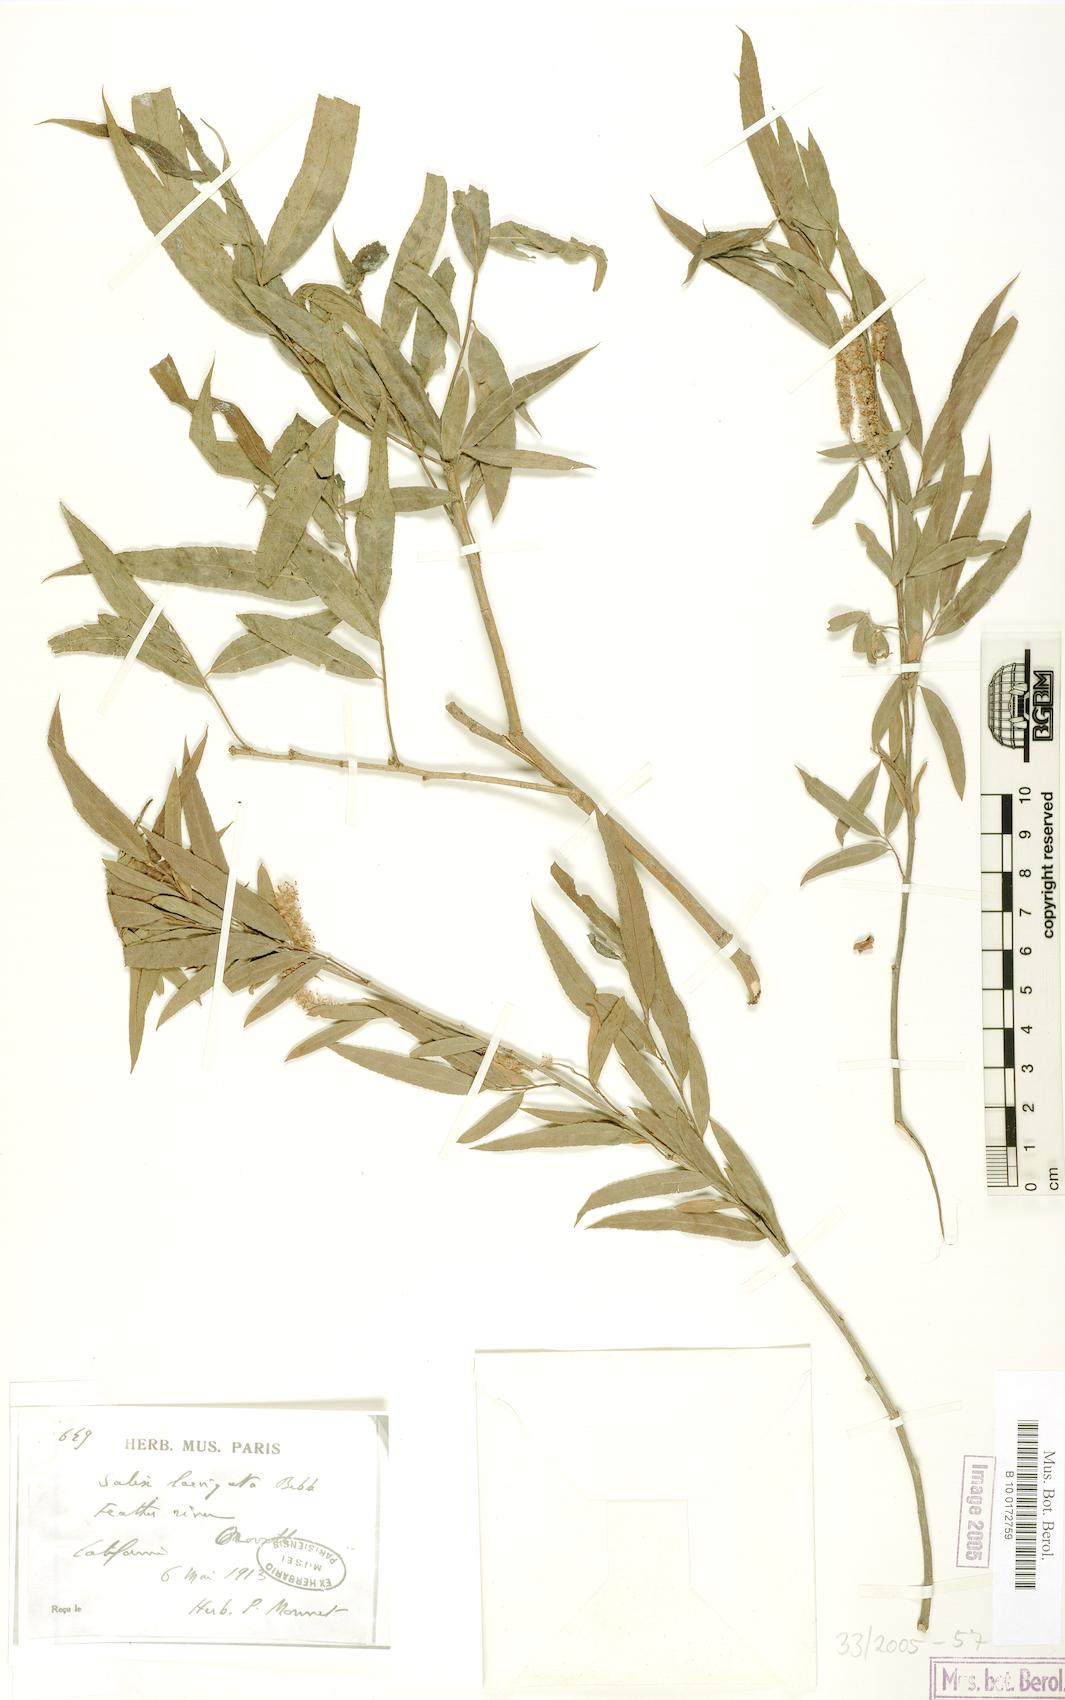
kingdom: Plantae
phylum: Tracheophyta
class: Magnoliopsida
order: Malpighiales
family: Salicaceae
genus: Salix
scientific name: Salix laevigata
